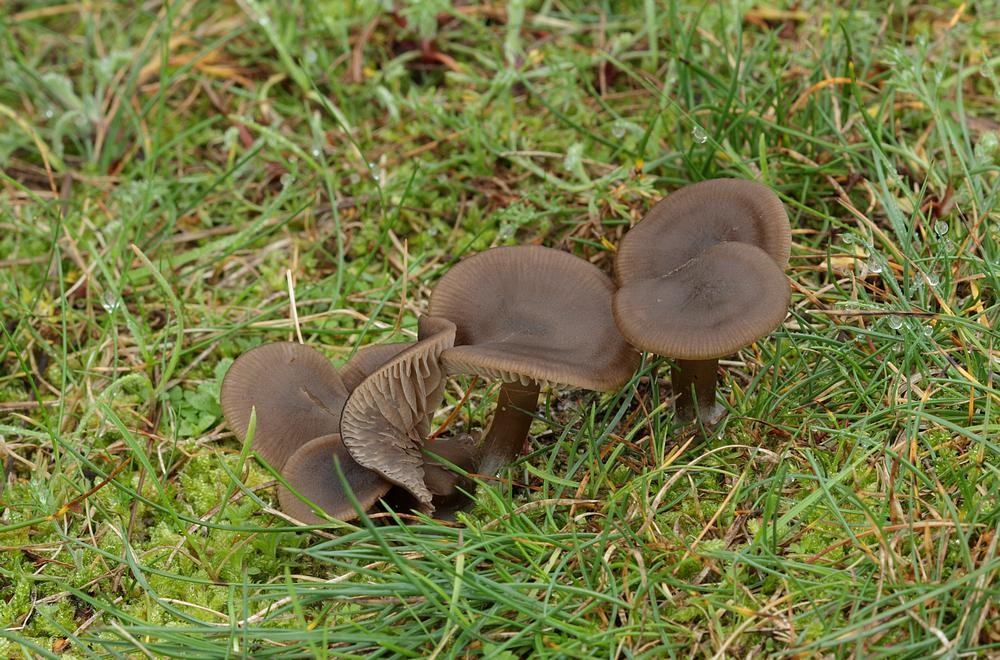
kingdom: Fungi
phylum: Basidiomycota
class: Agaricomycetes
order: Agaricales
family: Entolomataceae
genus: Entoloma
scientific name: Entoloma sericeum
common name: silkeglinsende rødblad
